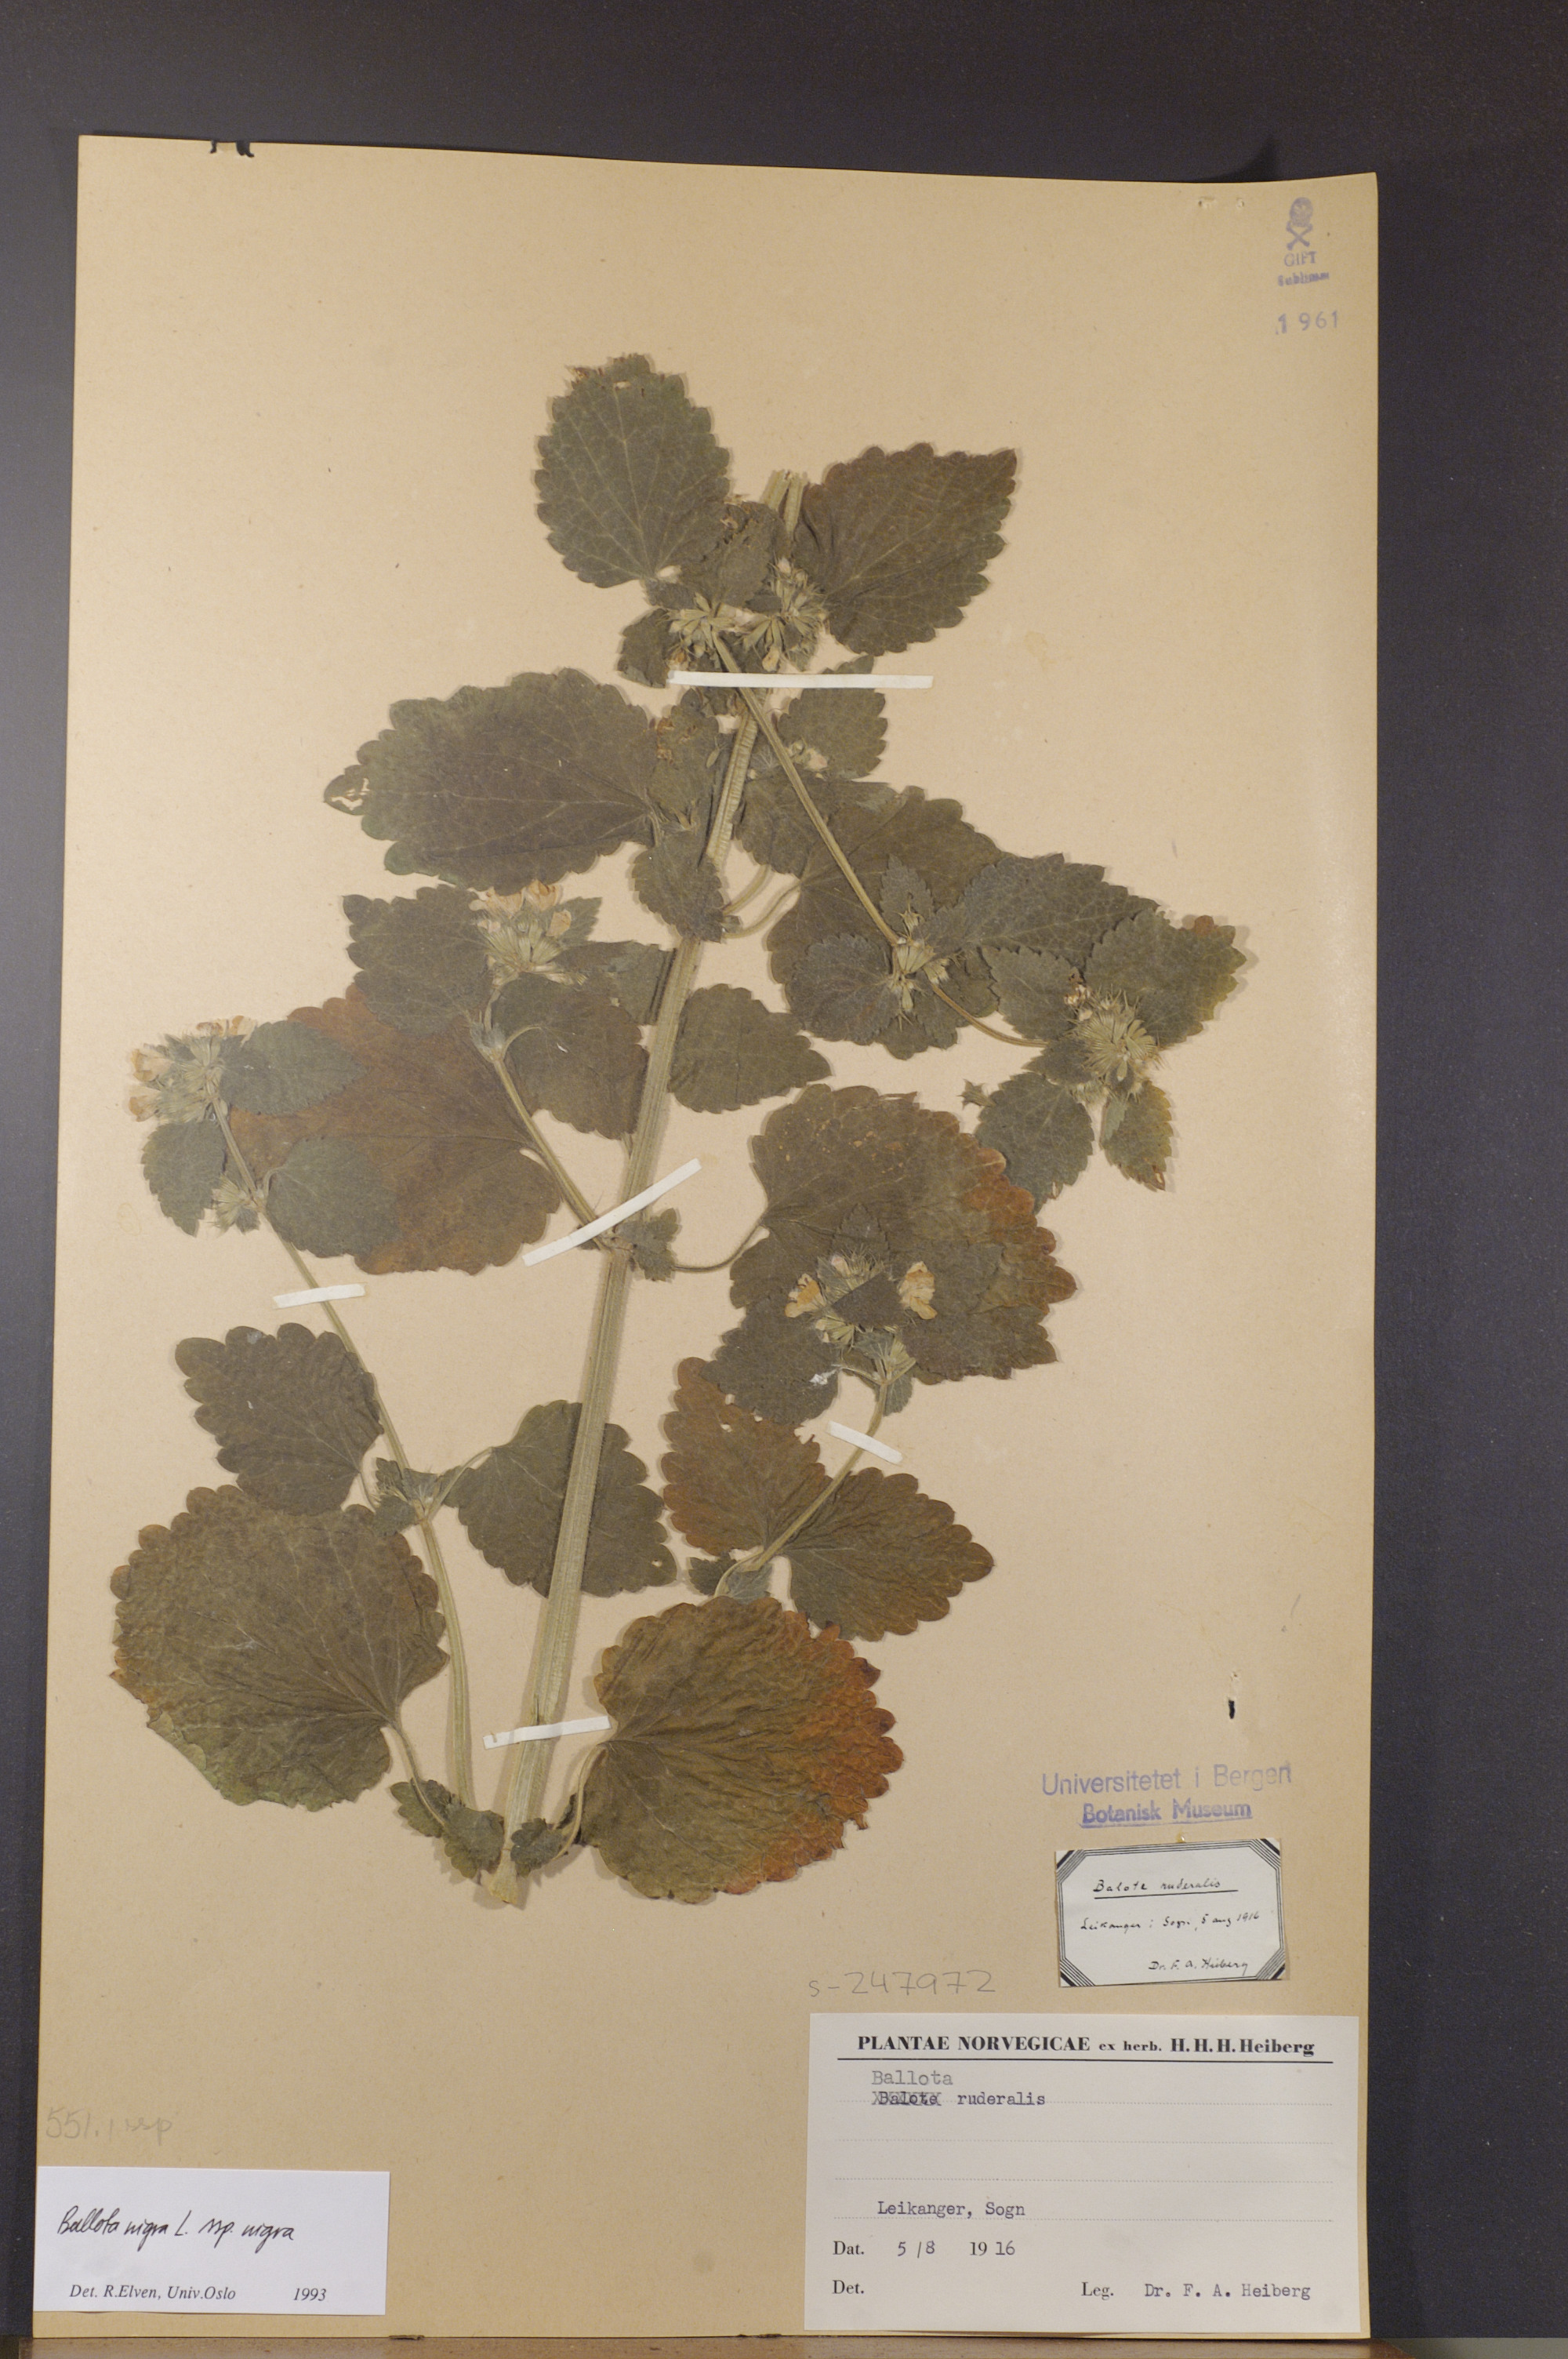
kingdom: Plantae
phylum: Tracheophyta
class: Magnoliopsida
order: Lamiales
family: Lamiaceae
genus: Ballota
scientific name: Ballota nigra
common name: Black horehound
